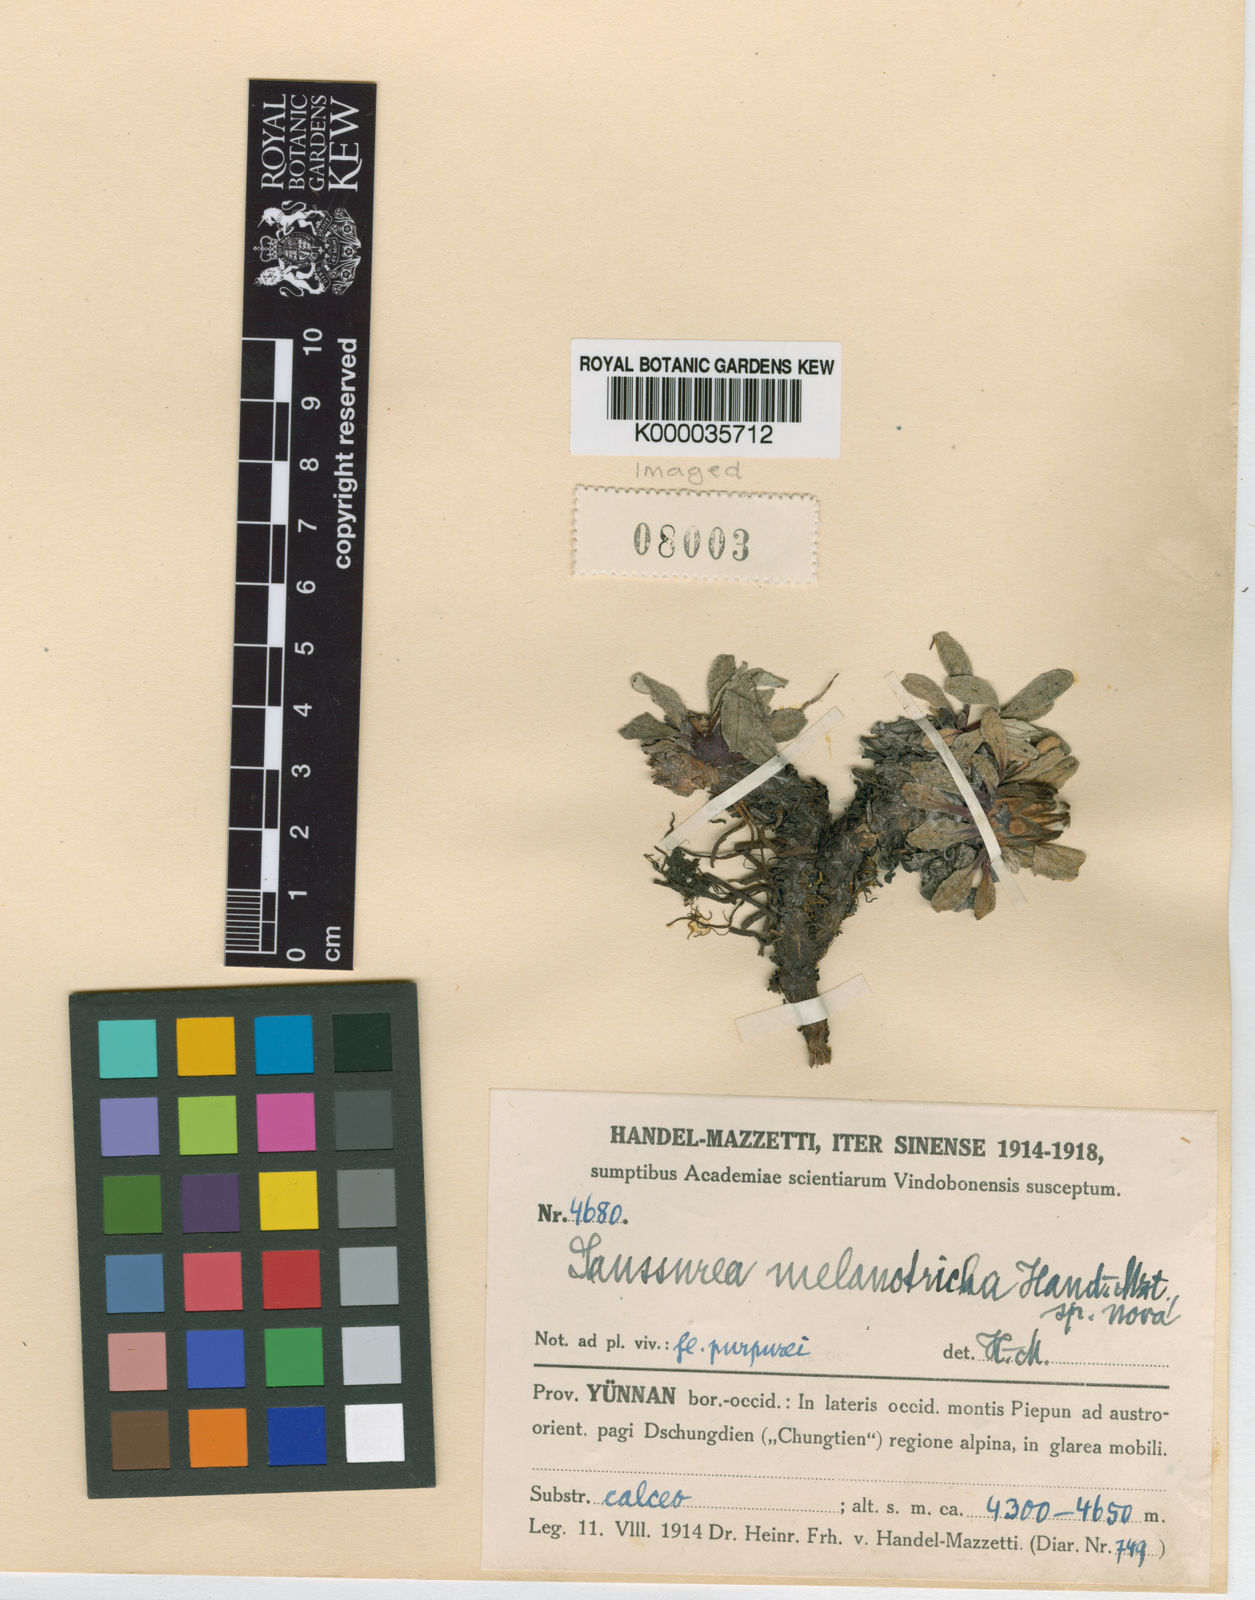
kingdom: Plantae
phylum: Tracheophyta
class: Magnoliopsida
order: Asterales
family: Asteraceae
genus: Saussurea
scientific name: Saussurea melanotricha
